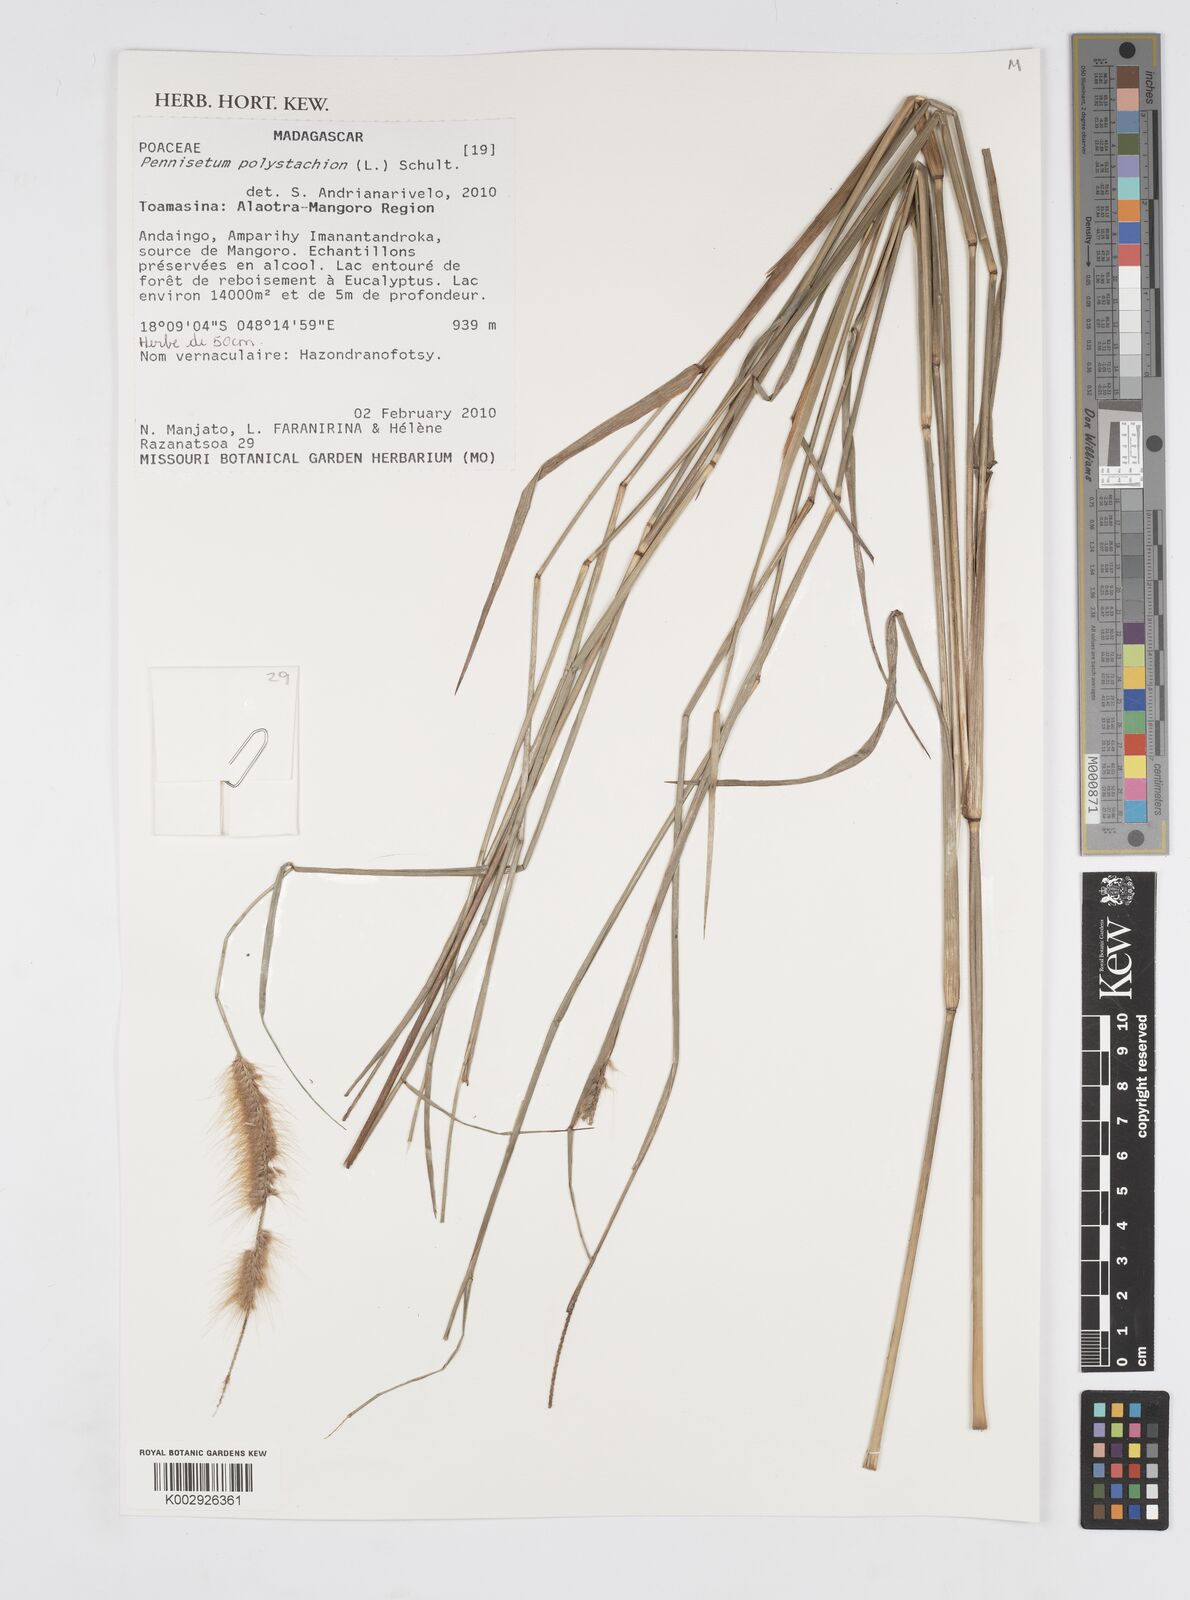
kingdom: Plantae
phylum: Tracheophyta
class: Liliopsida
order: Poales
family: Poaceae
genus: Setaria
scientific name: Setaria parviflora
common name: Knotroot bristle-grass
